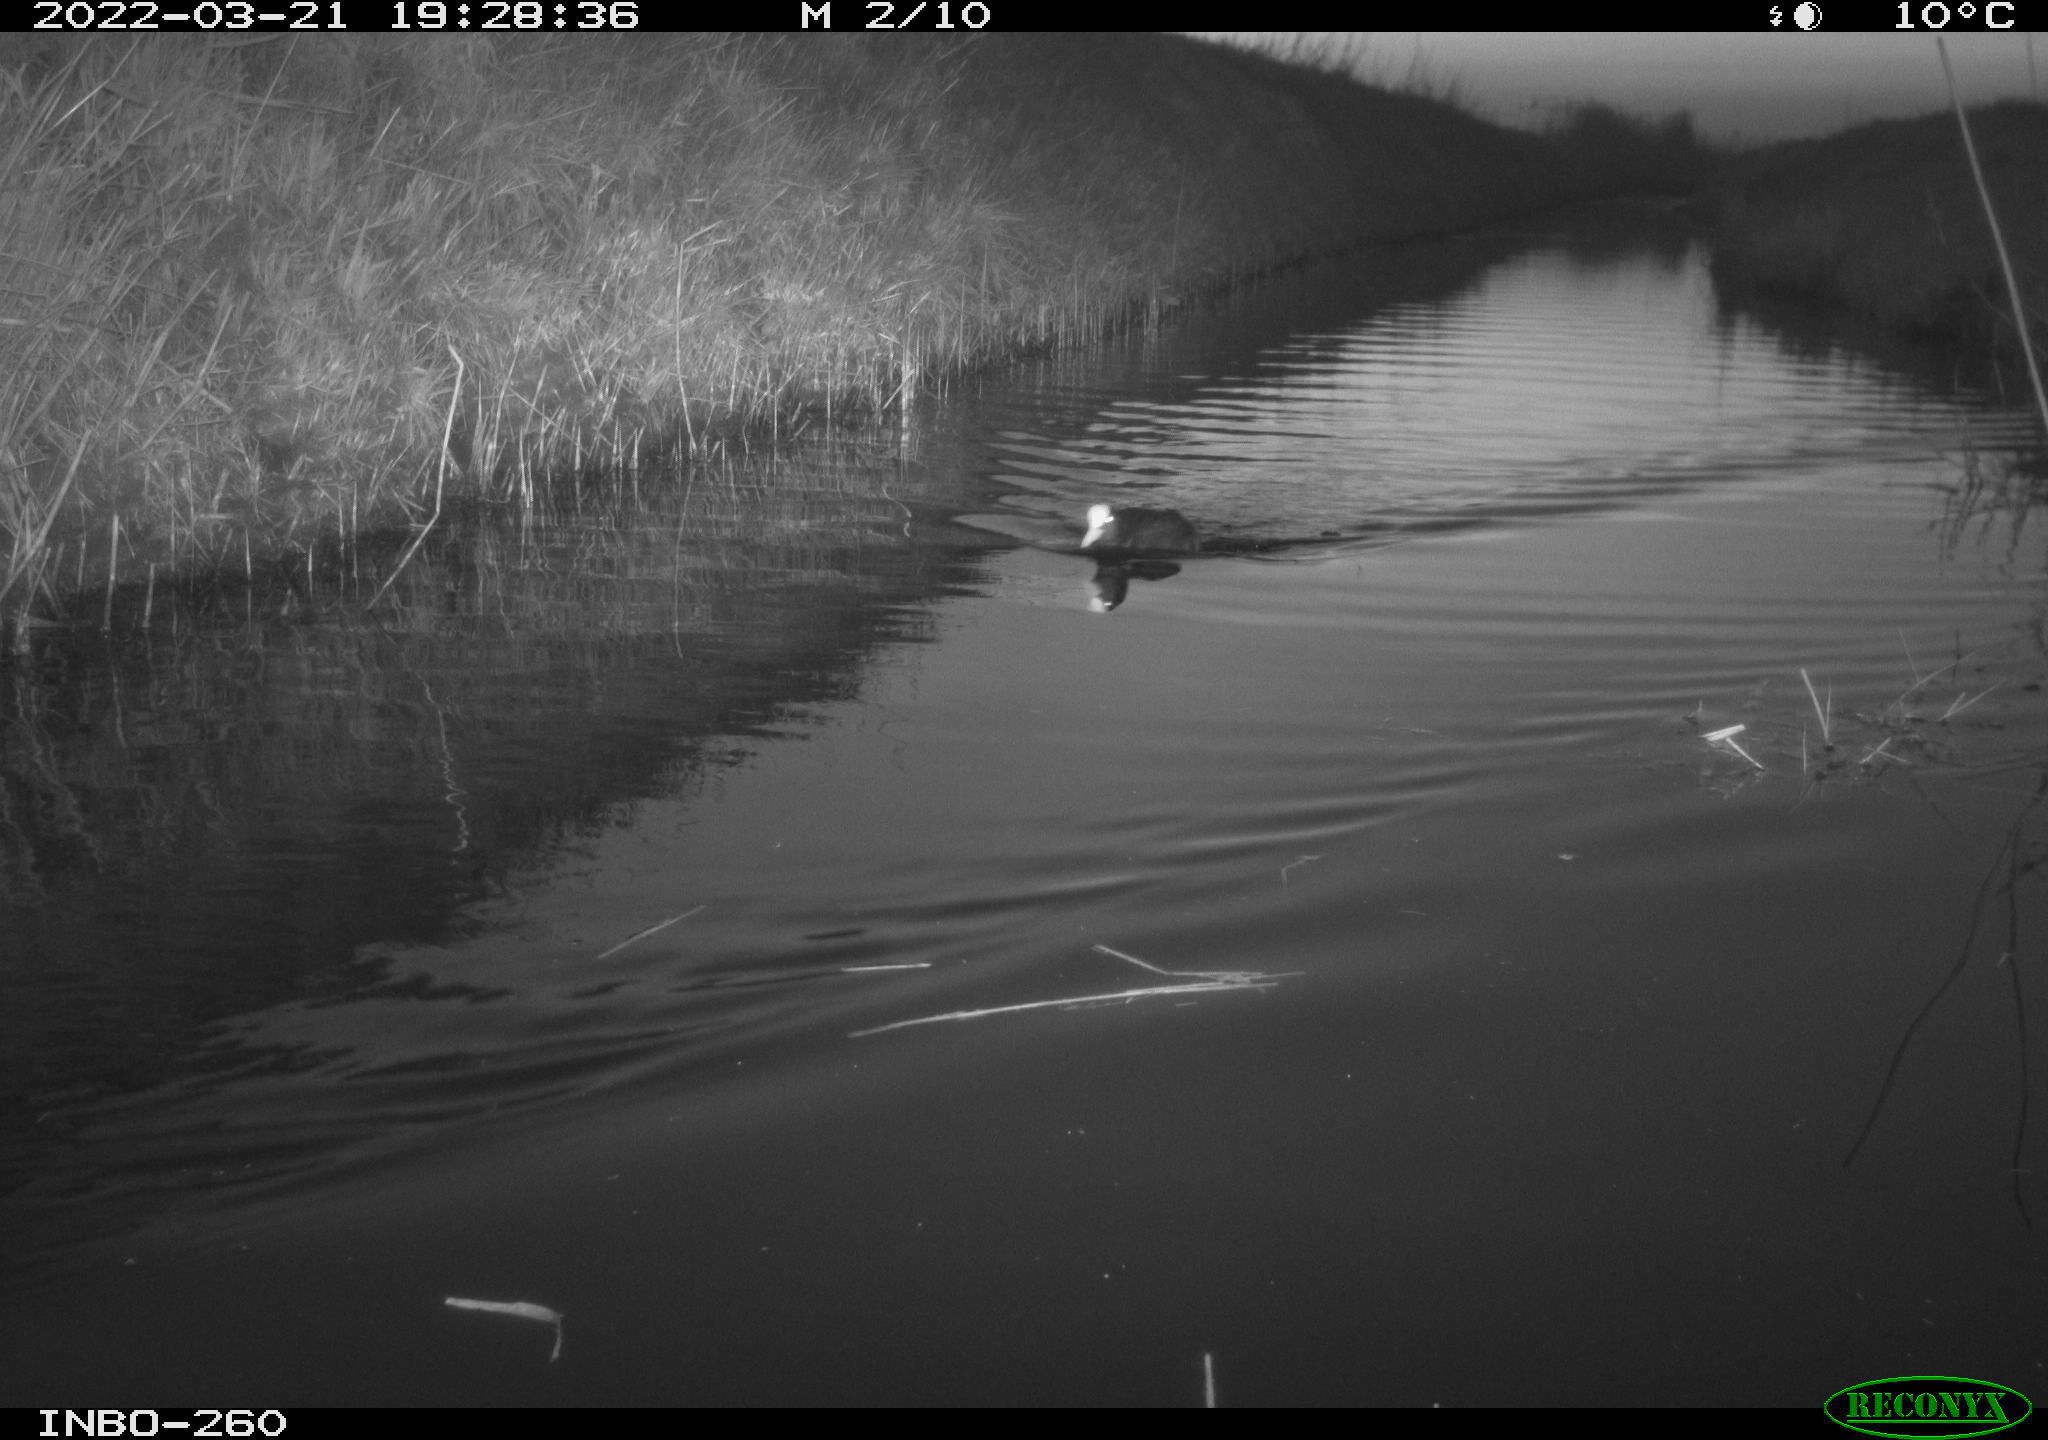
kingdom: Animalia
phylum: Chordata
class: Aves
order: Gruiformes
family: Rallidae
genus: Fulica
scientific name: Fulica atra
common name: Eurasian coot
